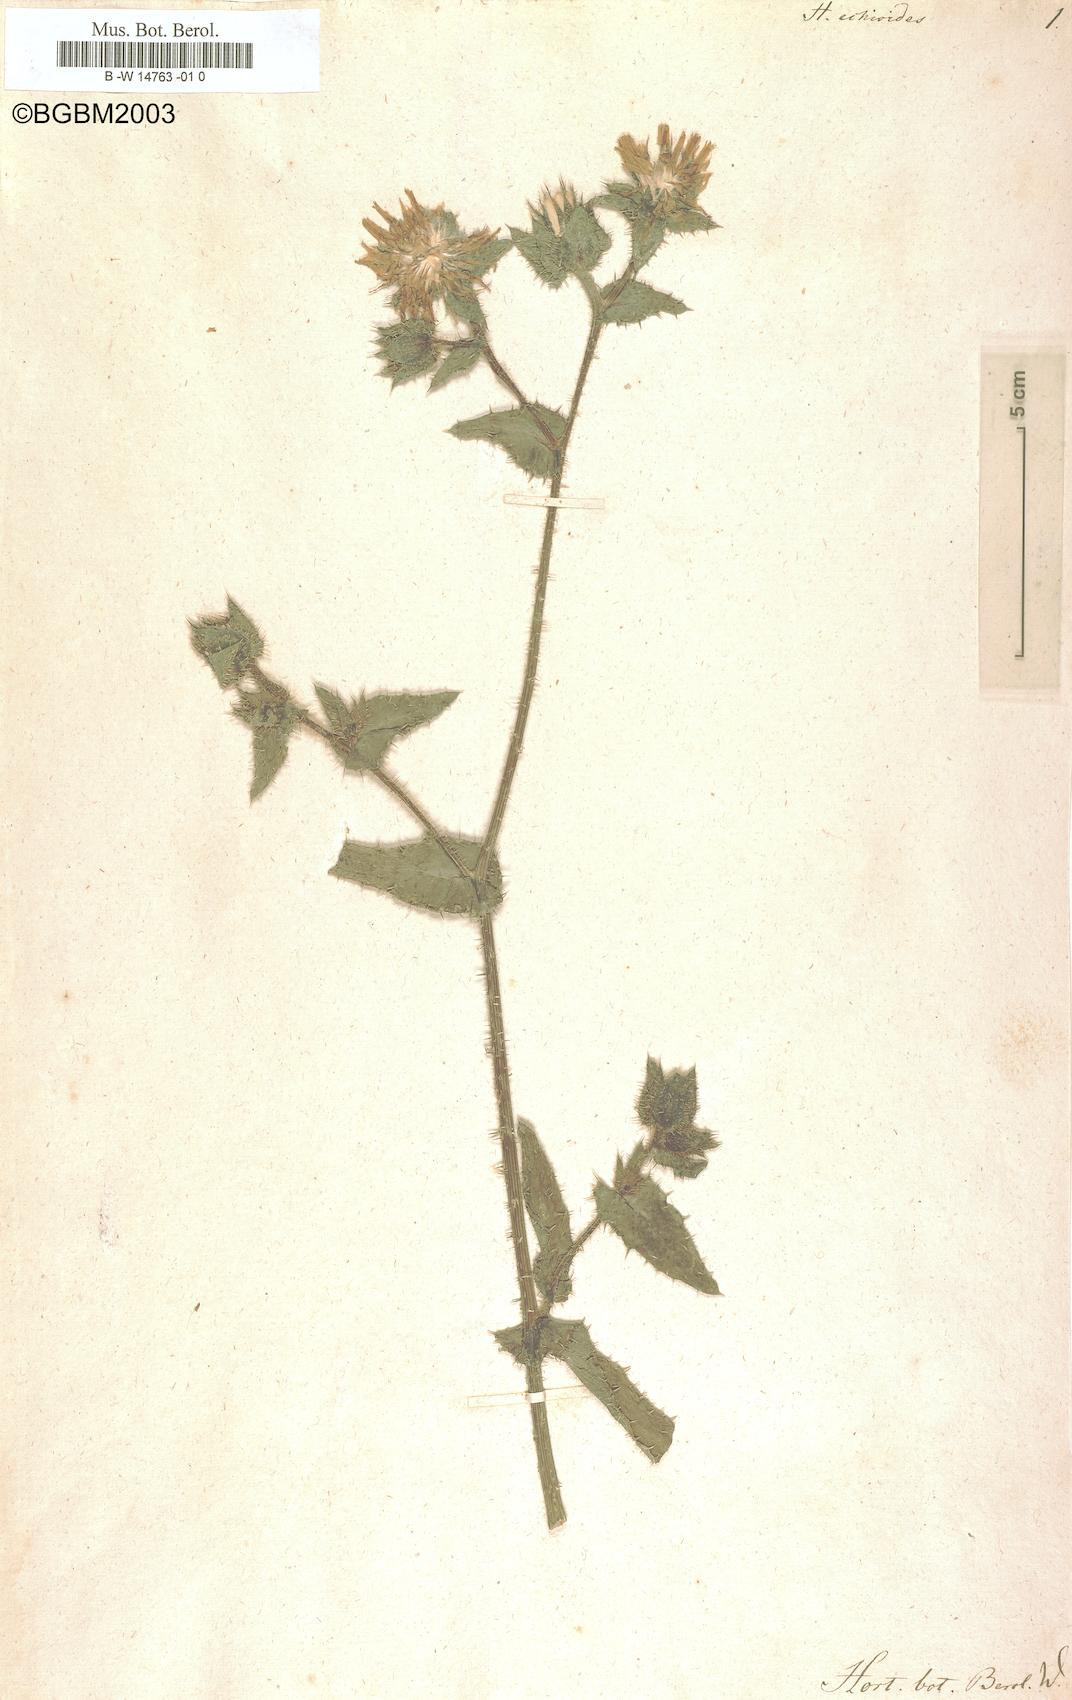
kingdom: Plantae
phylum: Tracheophyta
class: Magnoliopsida
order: Asterales
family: Asteraceae
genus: Helminthotheca
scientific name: Helminthotheca echioides
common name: Ox-tongue
